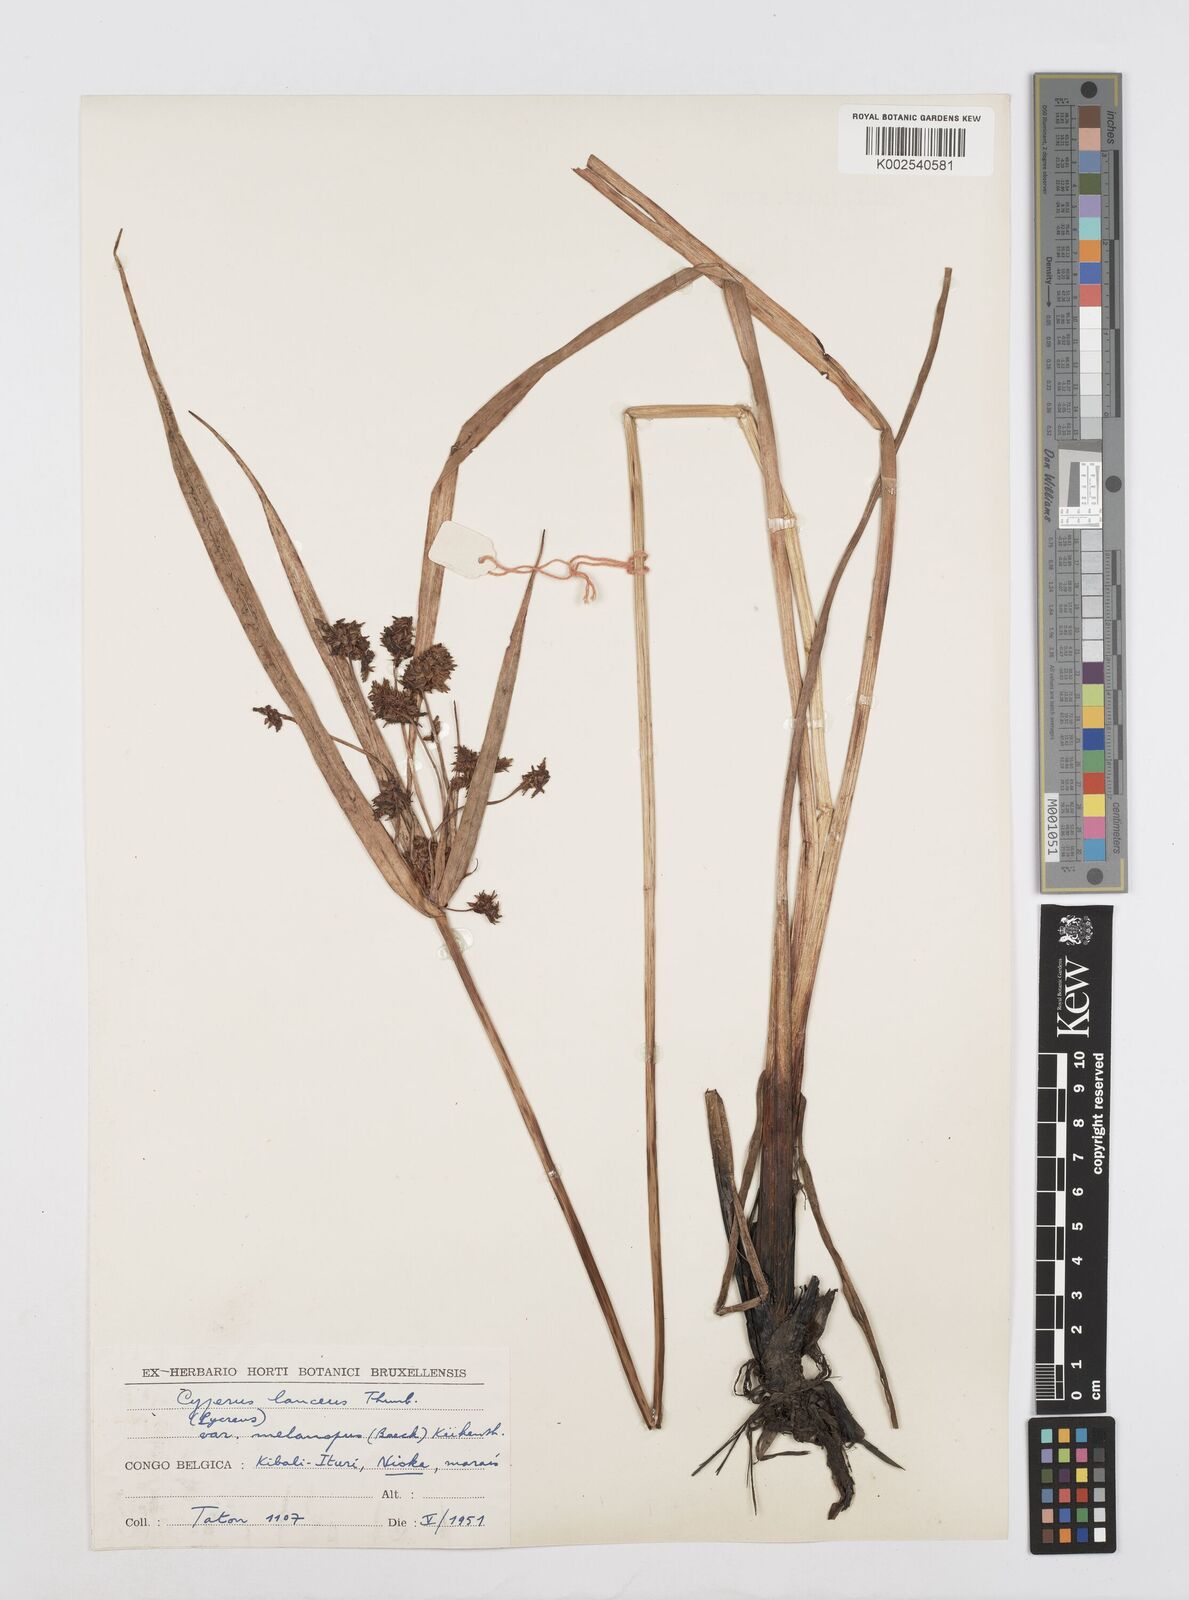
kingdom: Plantae
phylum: Tracheophyta
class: Liliopsida
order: Poales
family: Cyperaceae
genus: Cyperus
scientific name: Cyperus nitidus
